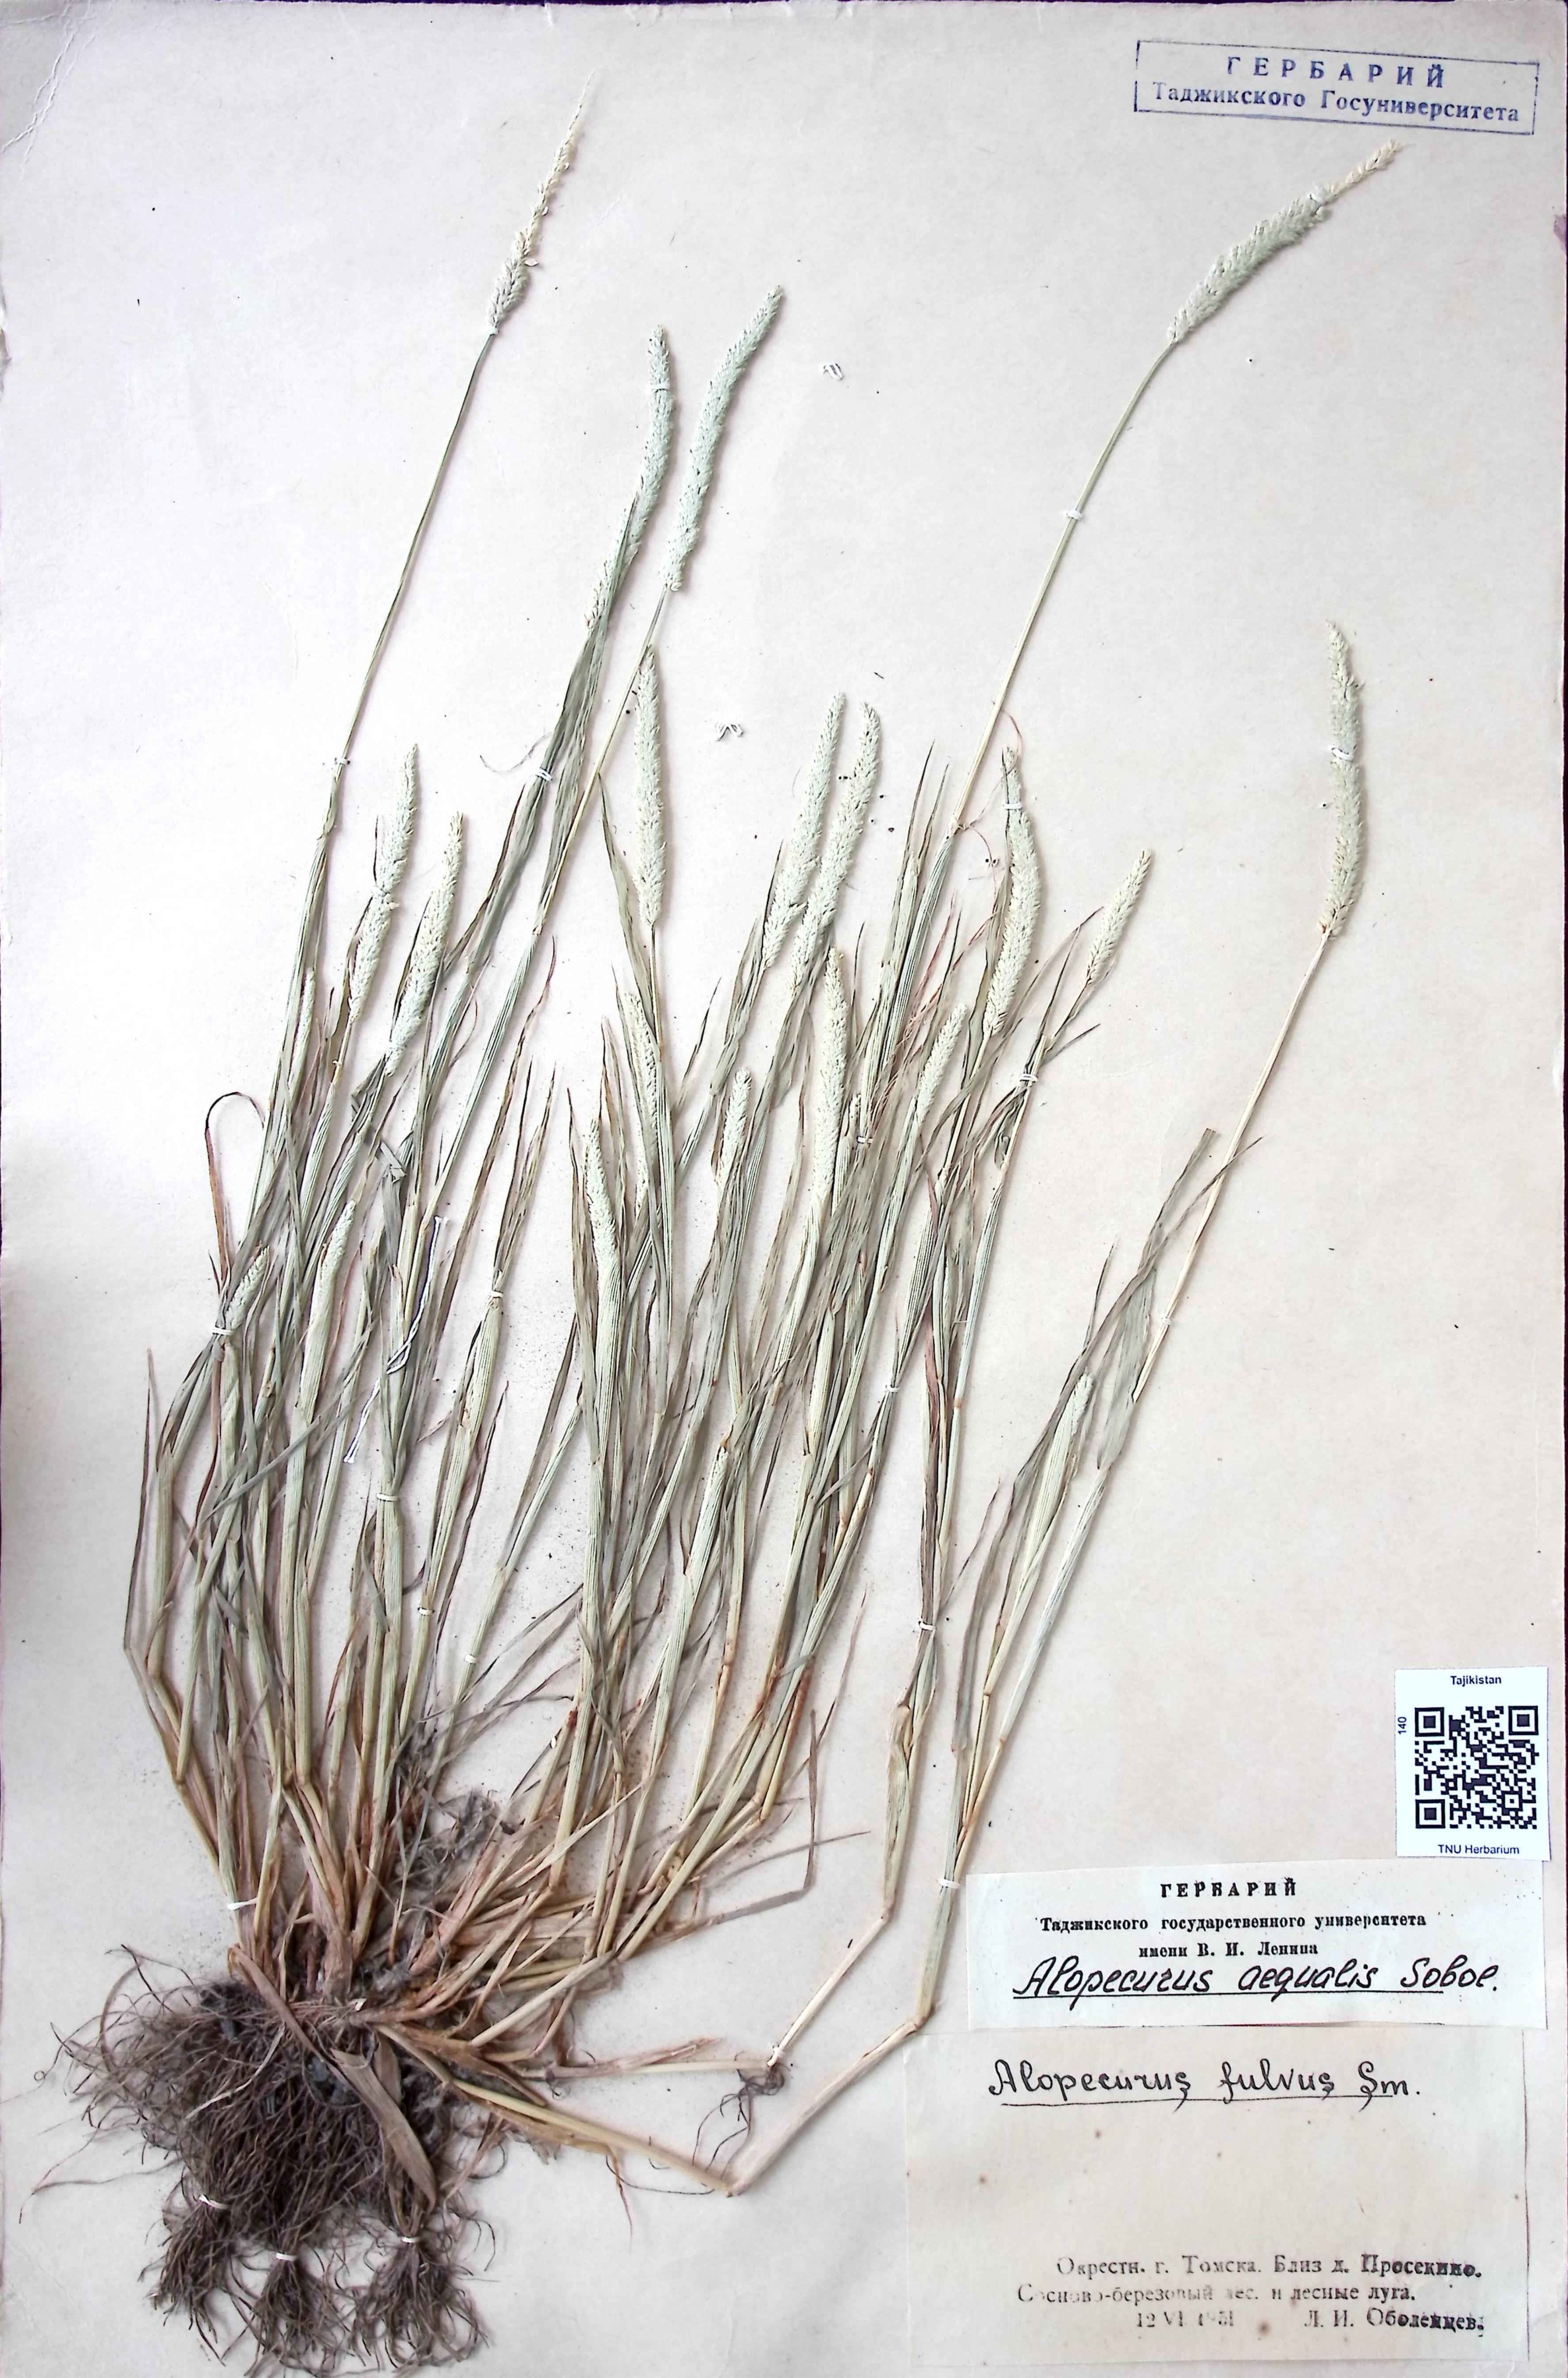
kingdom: Plantae
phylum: Tracheophyta
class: Liliopsida
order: Poales
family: Poaceae
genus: Alopecurus
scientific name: Alopecurus aequalis
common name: Orange foxtail
